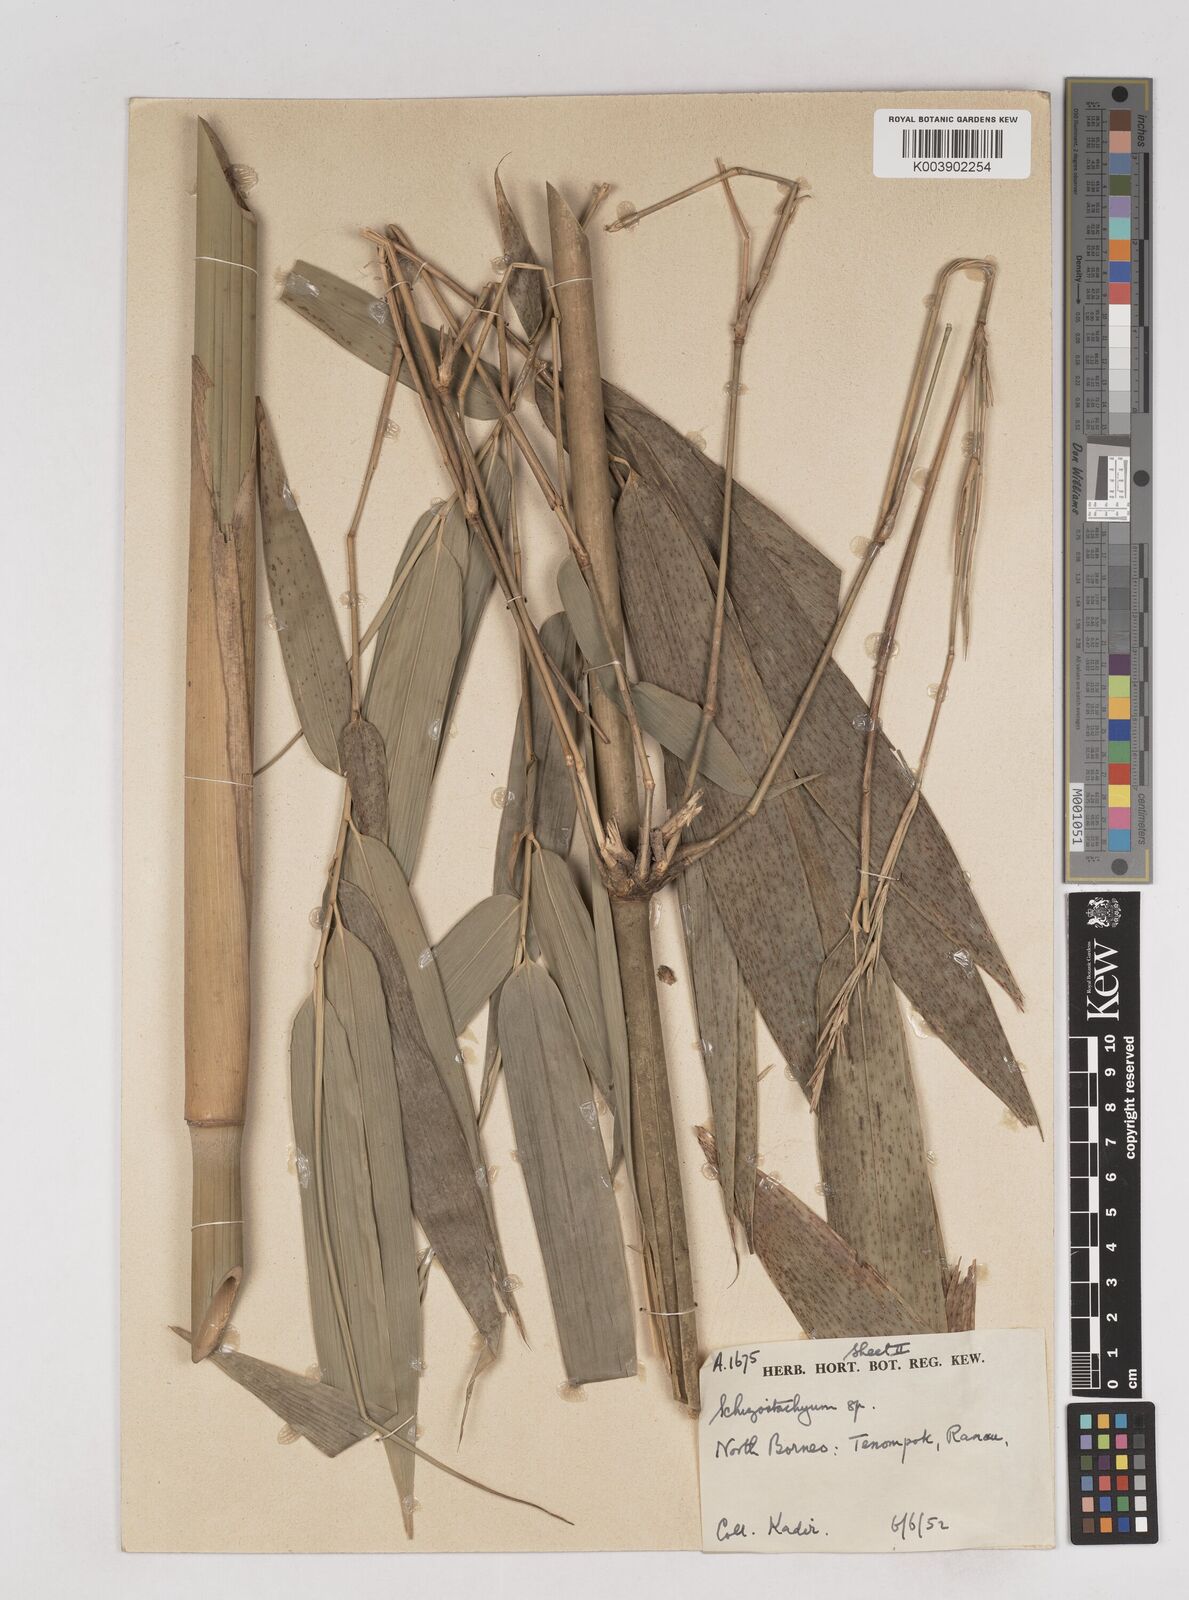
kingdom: Plantae
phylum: Tracheophyta
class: Liliopsida
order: Poales
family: Poaceae
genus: Schizostachyum
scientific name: Schizostachyum lima
